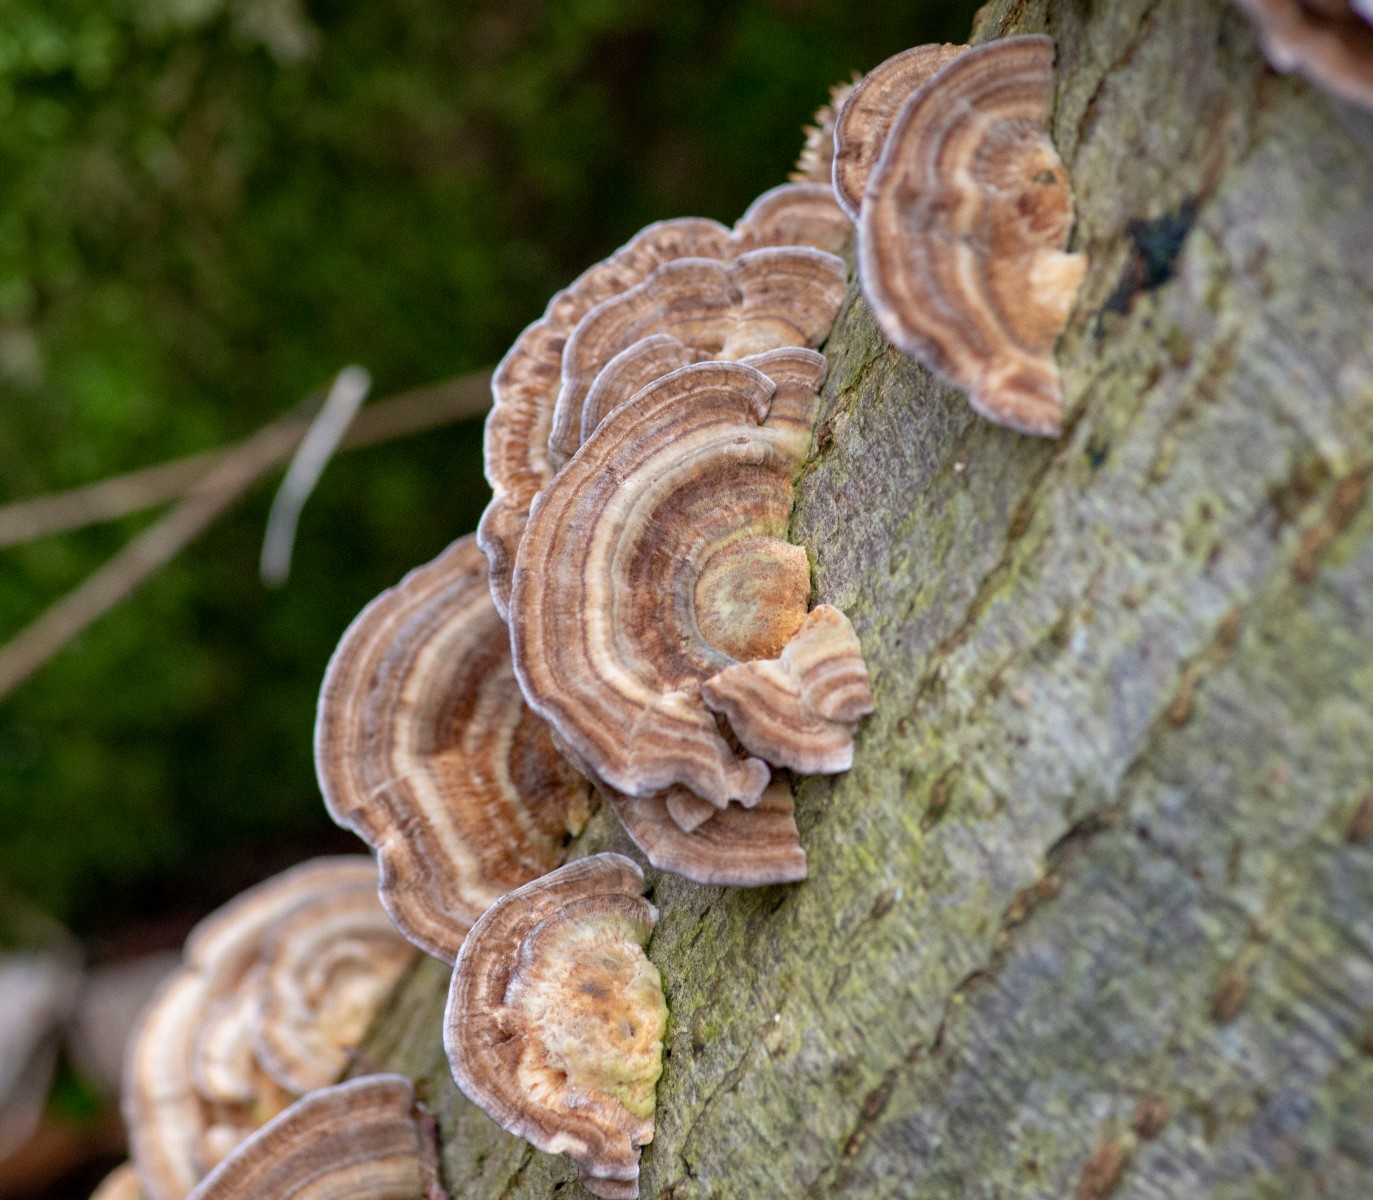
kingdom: Fungi
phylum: Basidiomycota
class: Agaricomycetes
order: Polyporales
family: Polyporaceae
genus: Trametes
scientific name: Trametes versicolor
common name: broget læderporesvamp
